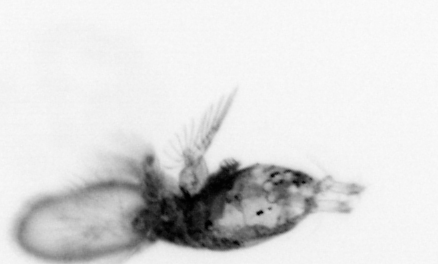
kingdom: Animalia
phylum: Arthropoda
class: Copepoda
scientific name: Copepoda
